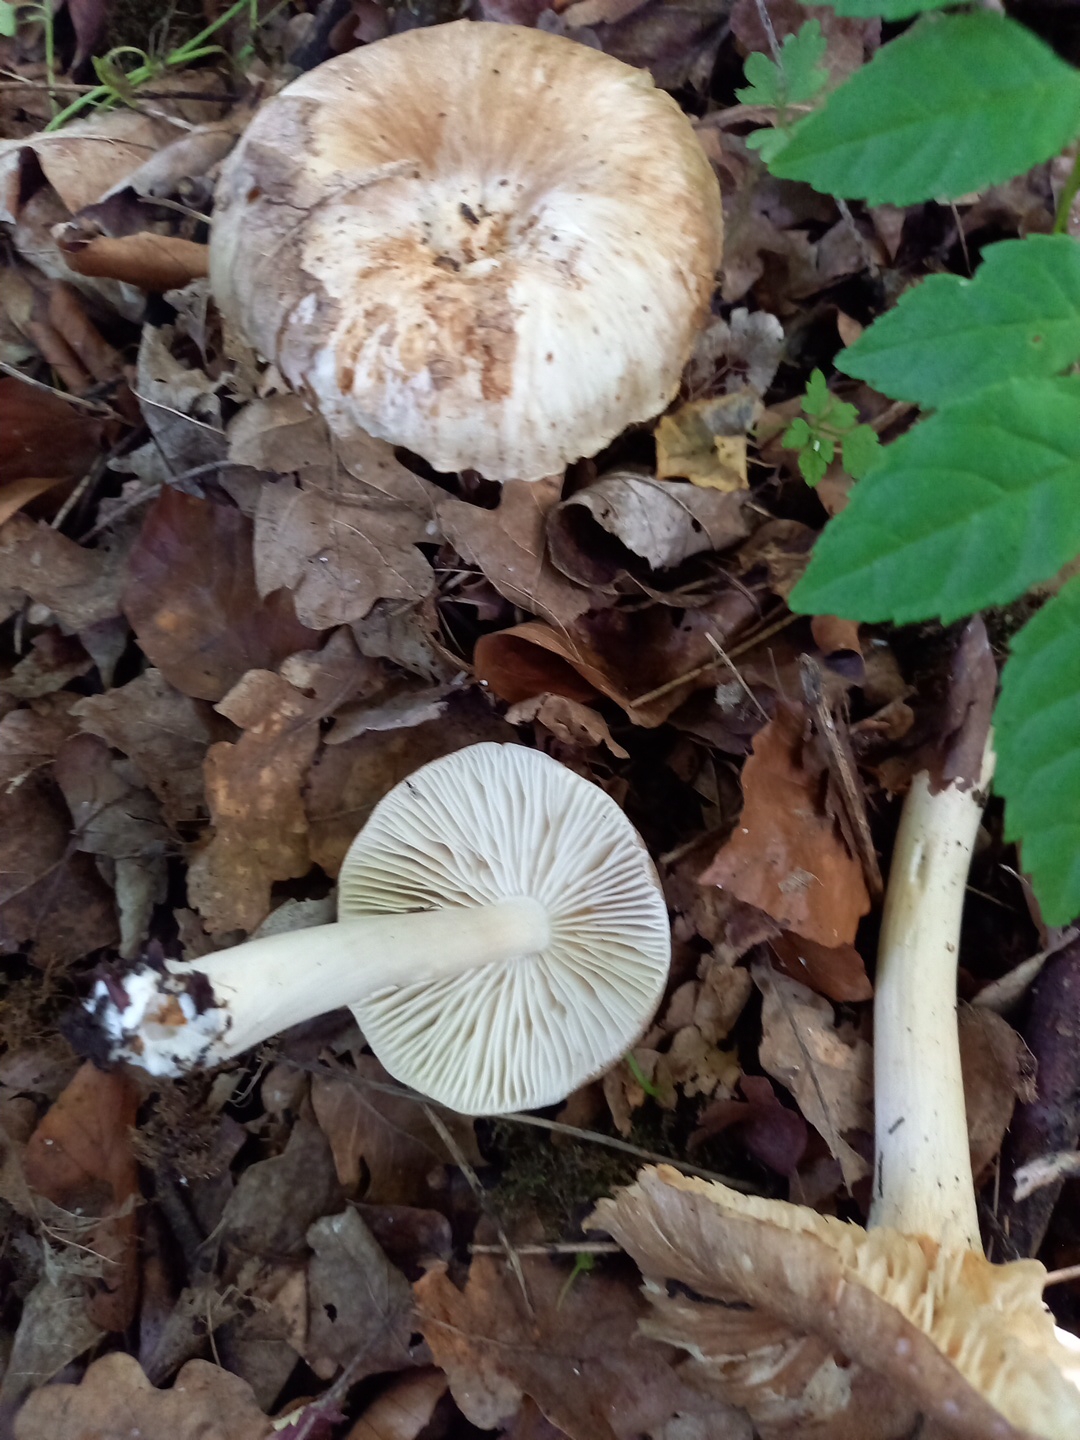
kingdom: Fungi
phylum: Basidiomycota
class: Agaricomycetes
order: Agaricales
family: Tricholomataceae
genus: Megacollybia
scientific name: Megacollybia platyphylla
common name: bredbladet væbnerhat
